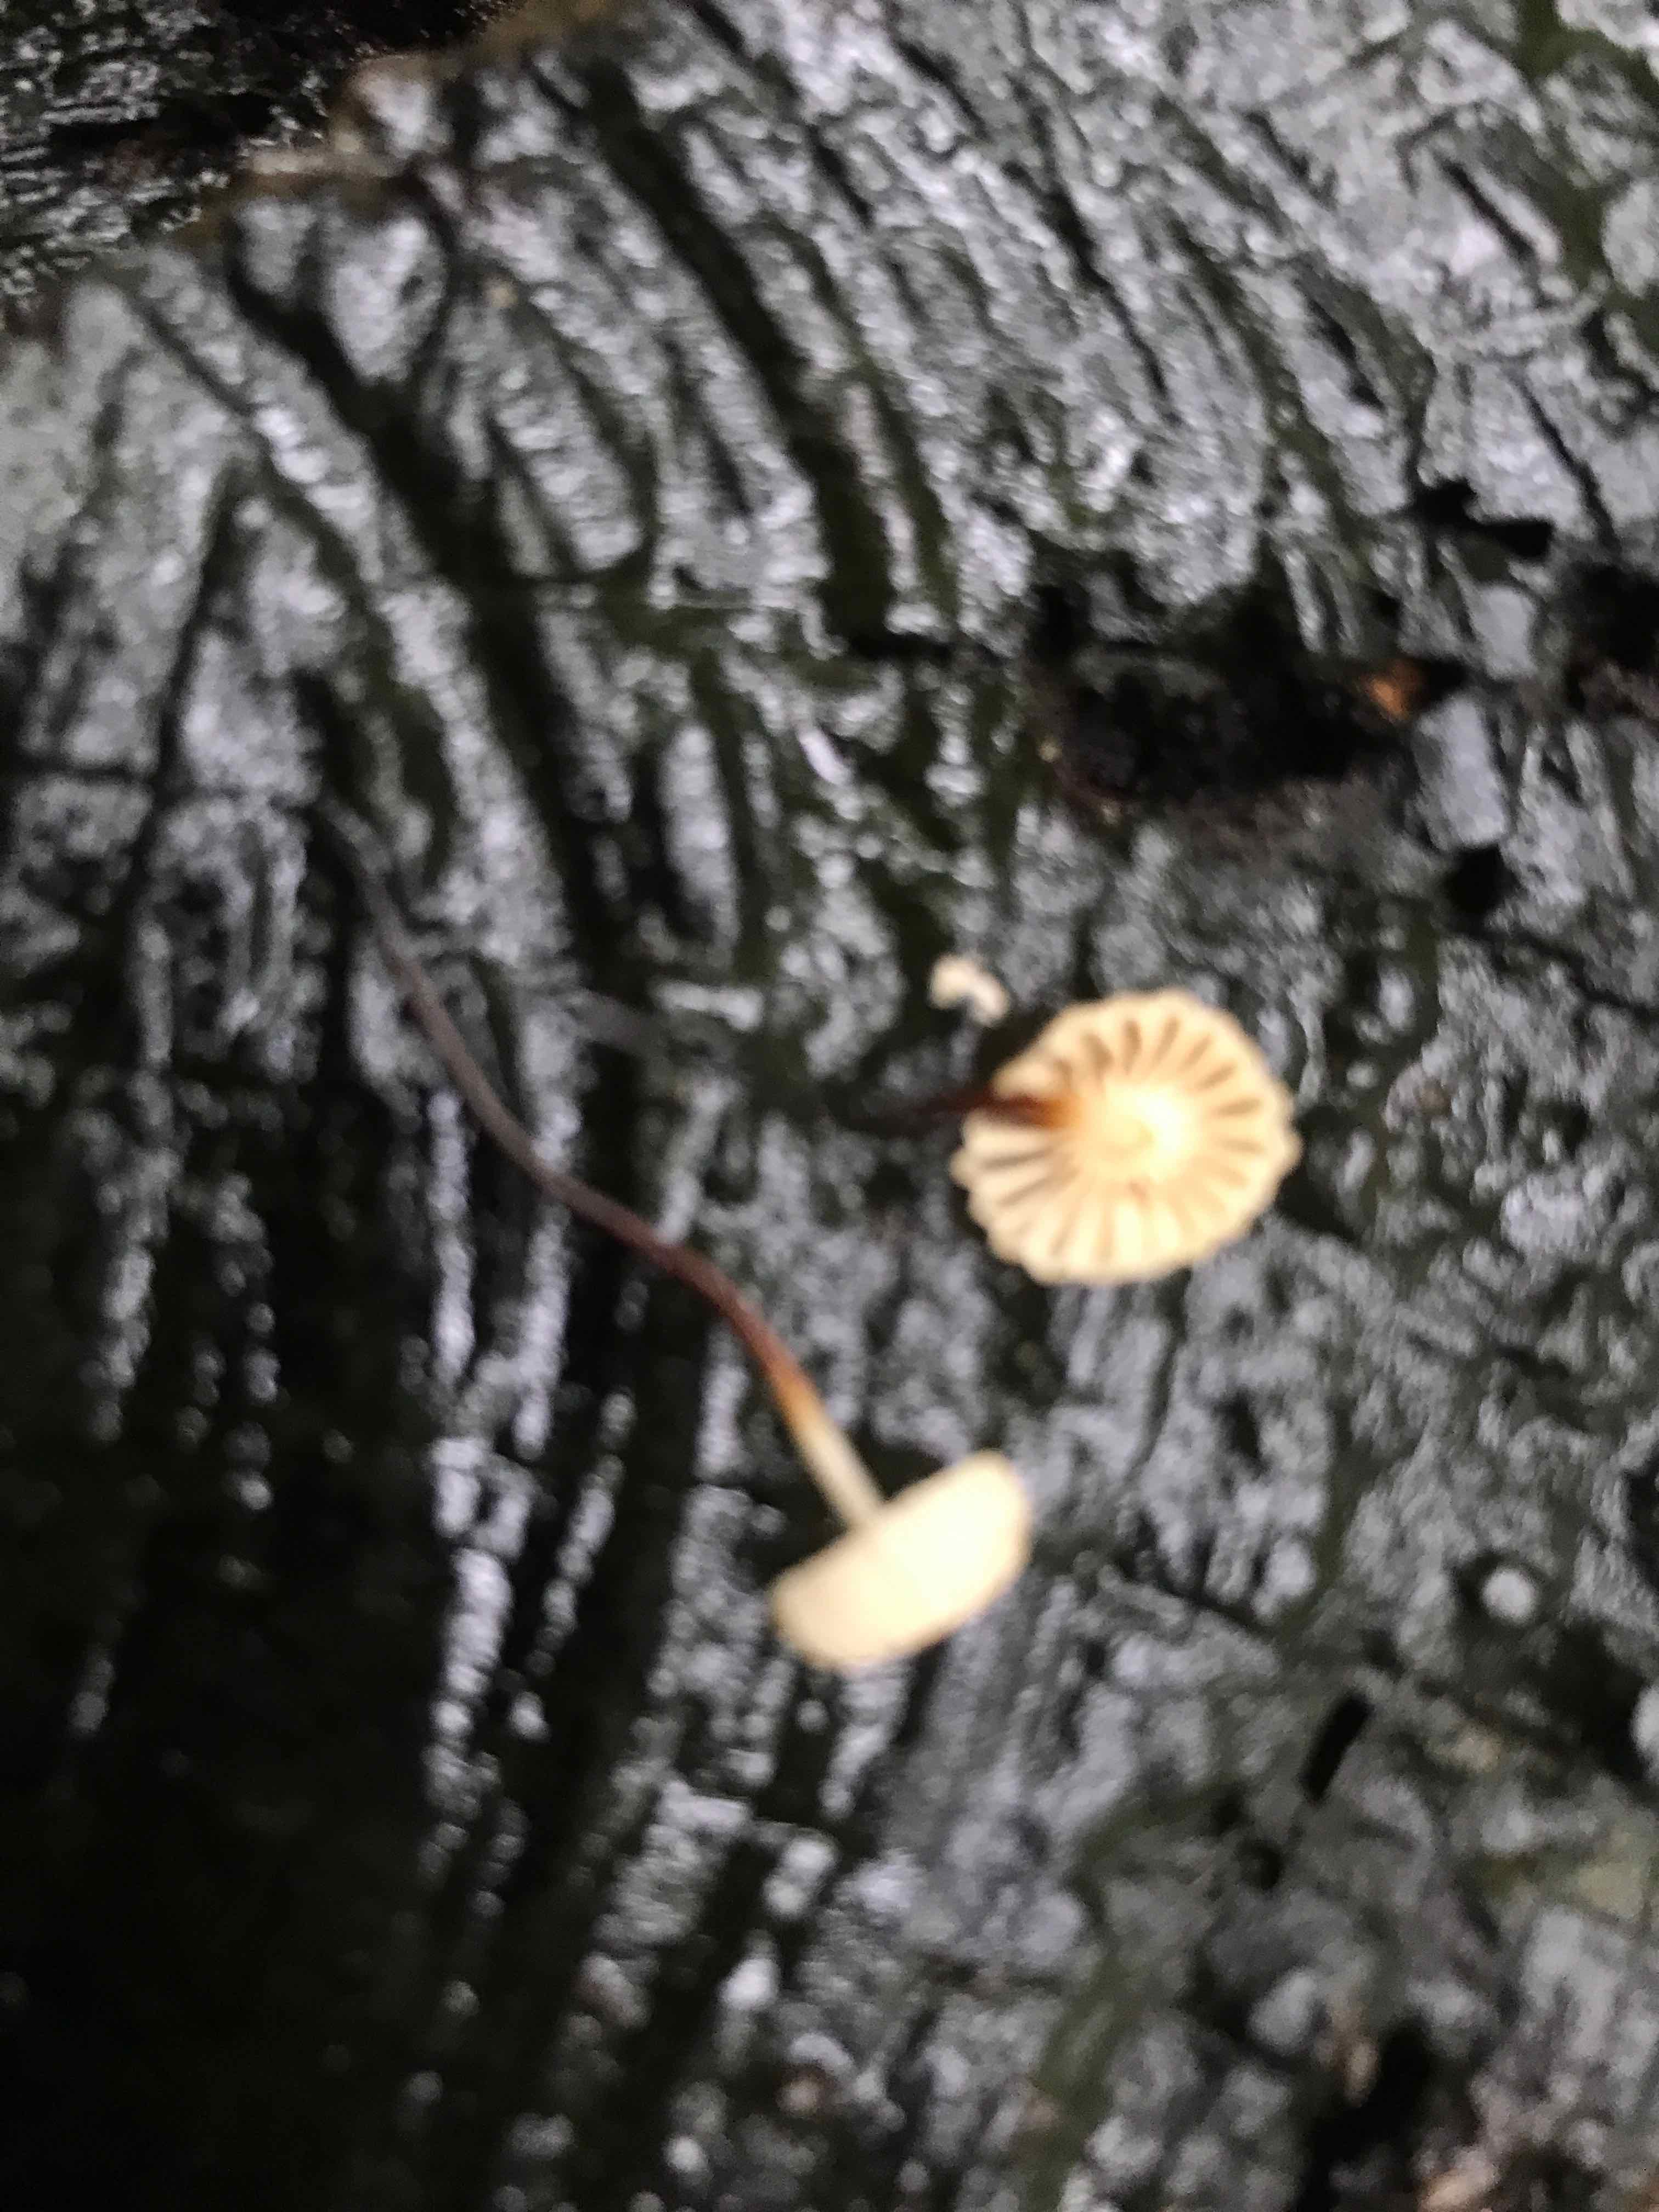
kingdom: Fungi
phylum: Basidiomycota
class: Agaricomycetes
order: Agaricales
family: Marasmiaceae
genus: Marasmius
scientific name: Marasmius rotula
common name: hjul-bruskhat
